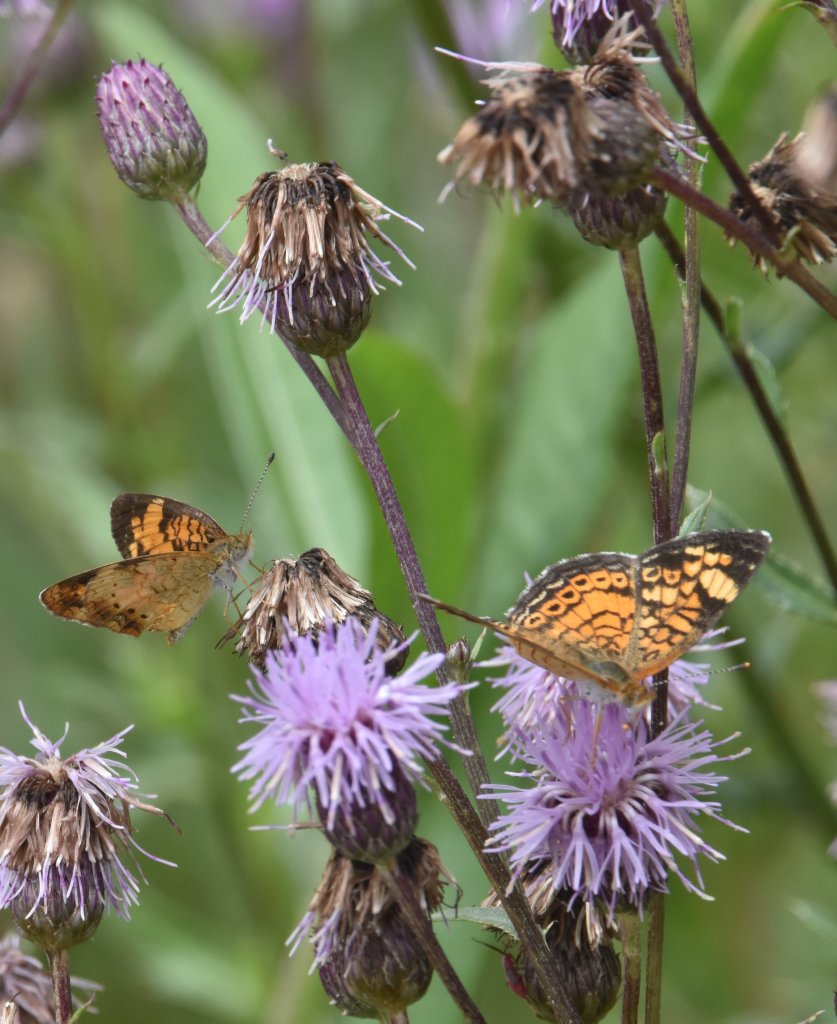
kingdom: Animalia
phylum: Arthropoda
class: Insecta
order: Lepidoptera
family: Nymphalidae
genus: Phyciodes
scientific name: Phyciodes tharos
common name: Northern Crescent
